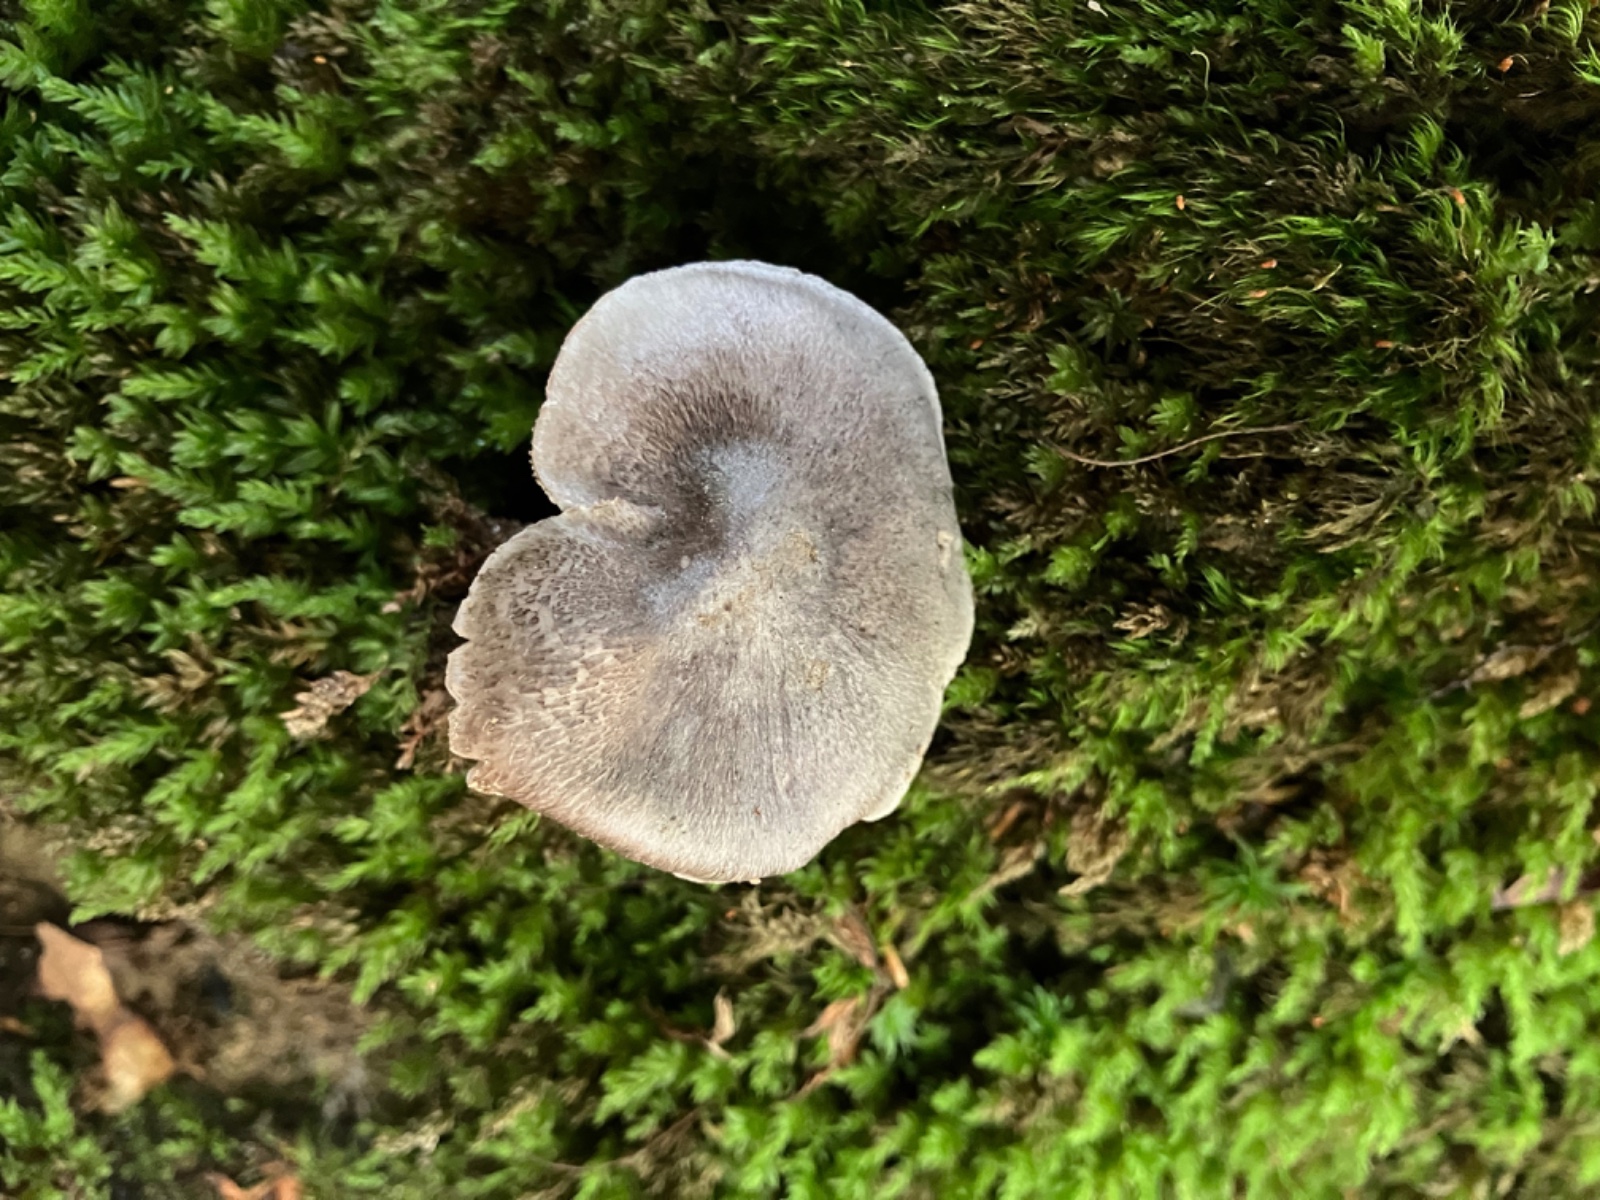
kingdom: Fungi
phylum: Basidiomycota
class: Agaricomycetes
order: Agaricales
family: Tricholomataceae
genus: Tricholoma
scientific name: Tricholoma sciodes
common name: stribet ridderhat
